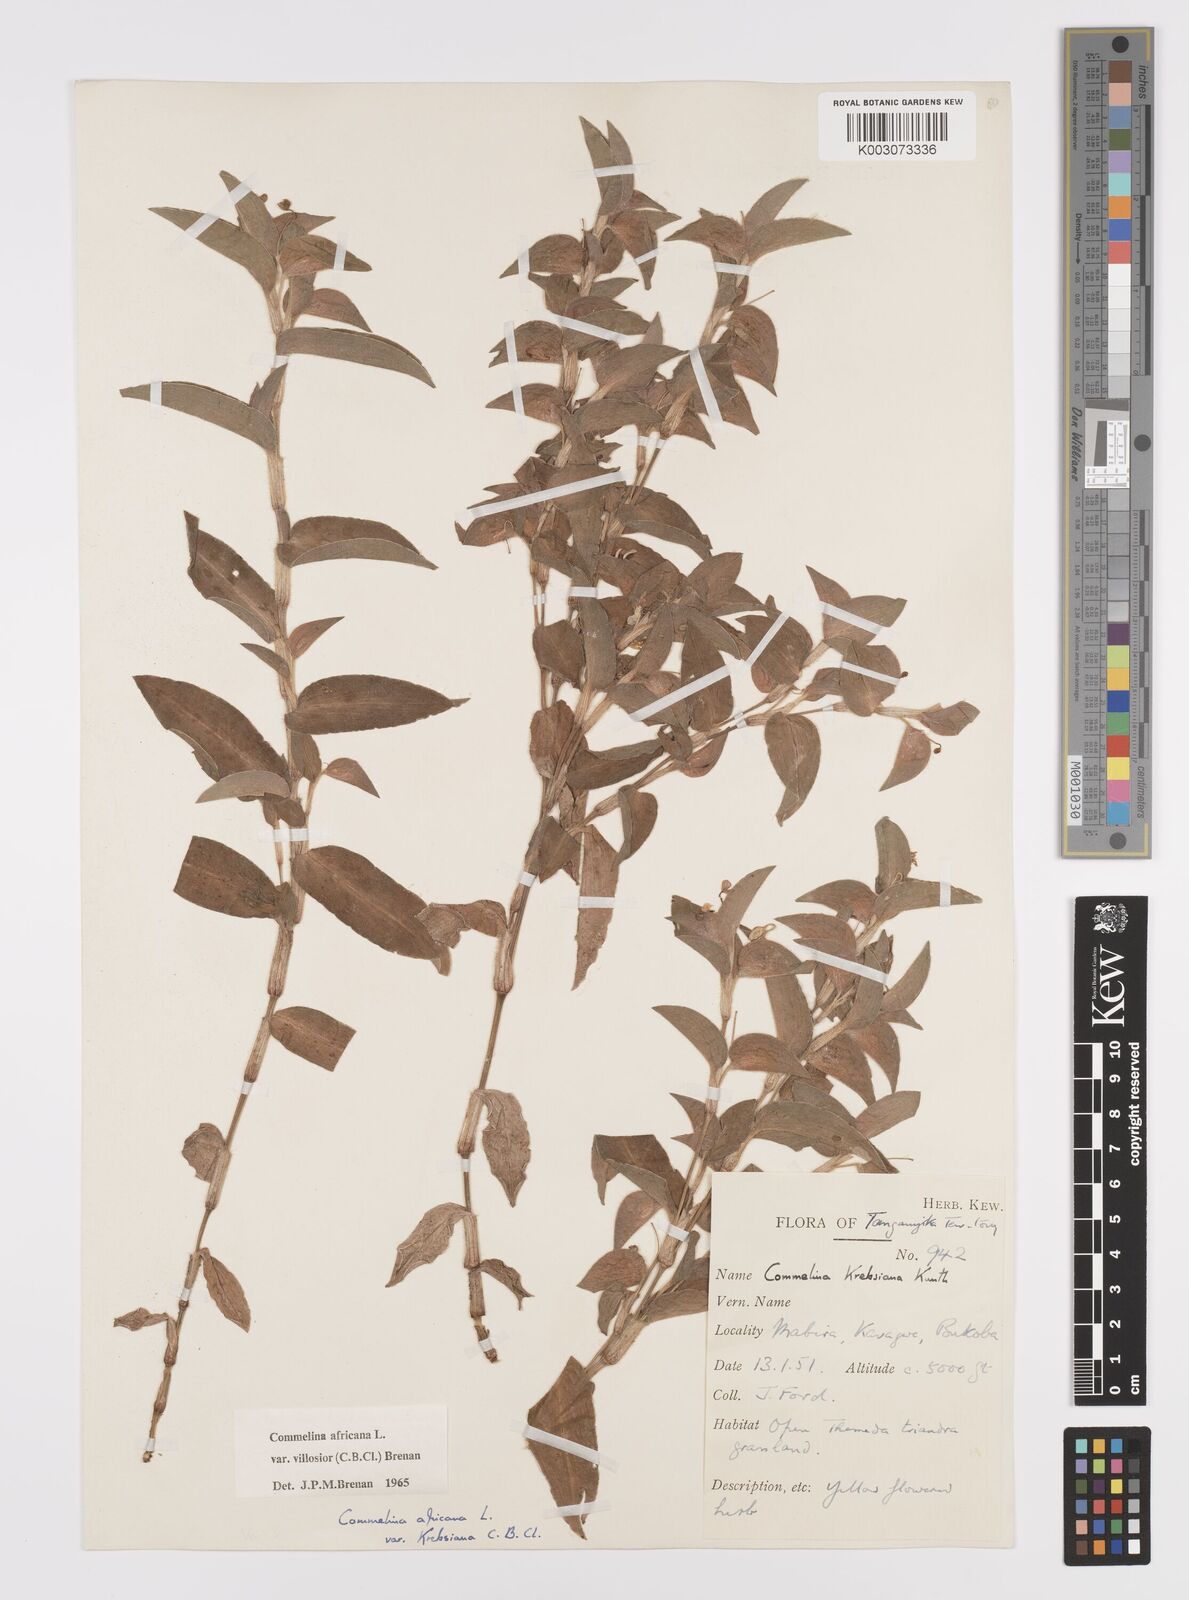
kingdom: Plantae
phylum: Tracheophyta
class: Liliopsida
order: Commelinales
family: Commelinaceae
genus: Commelina
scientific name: Commelina africana
